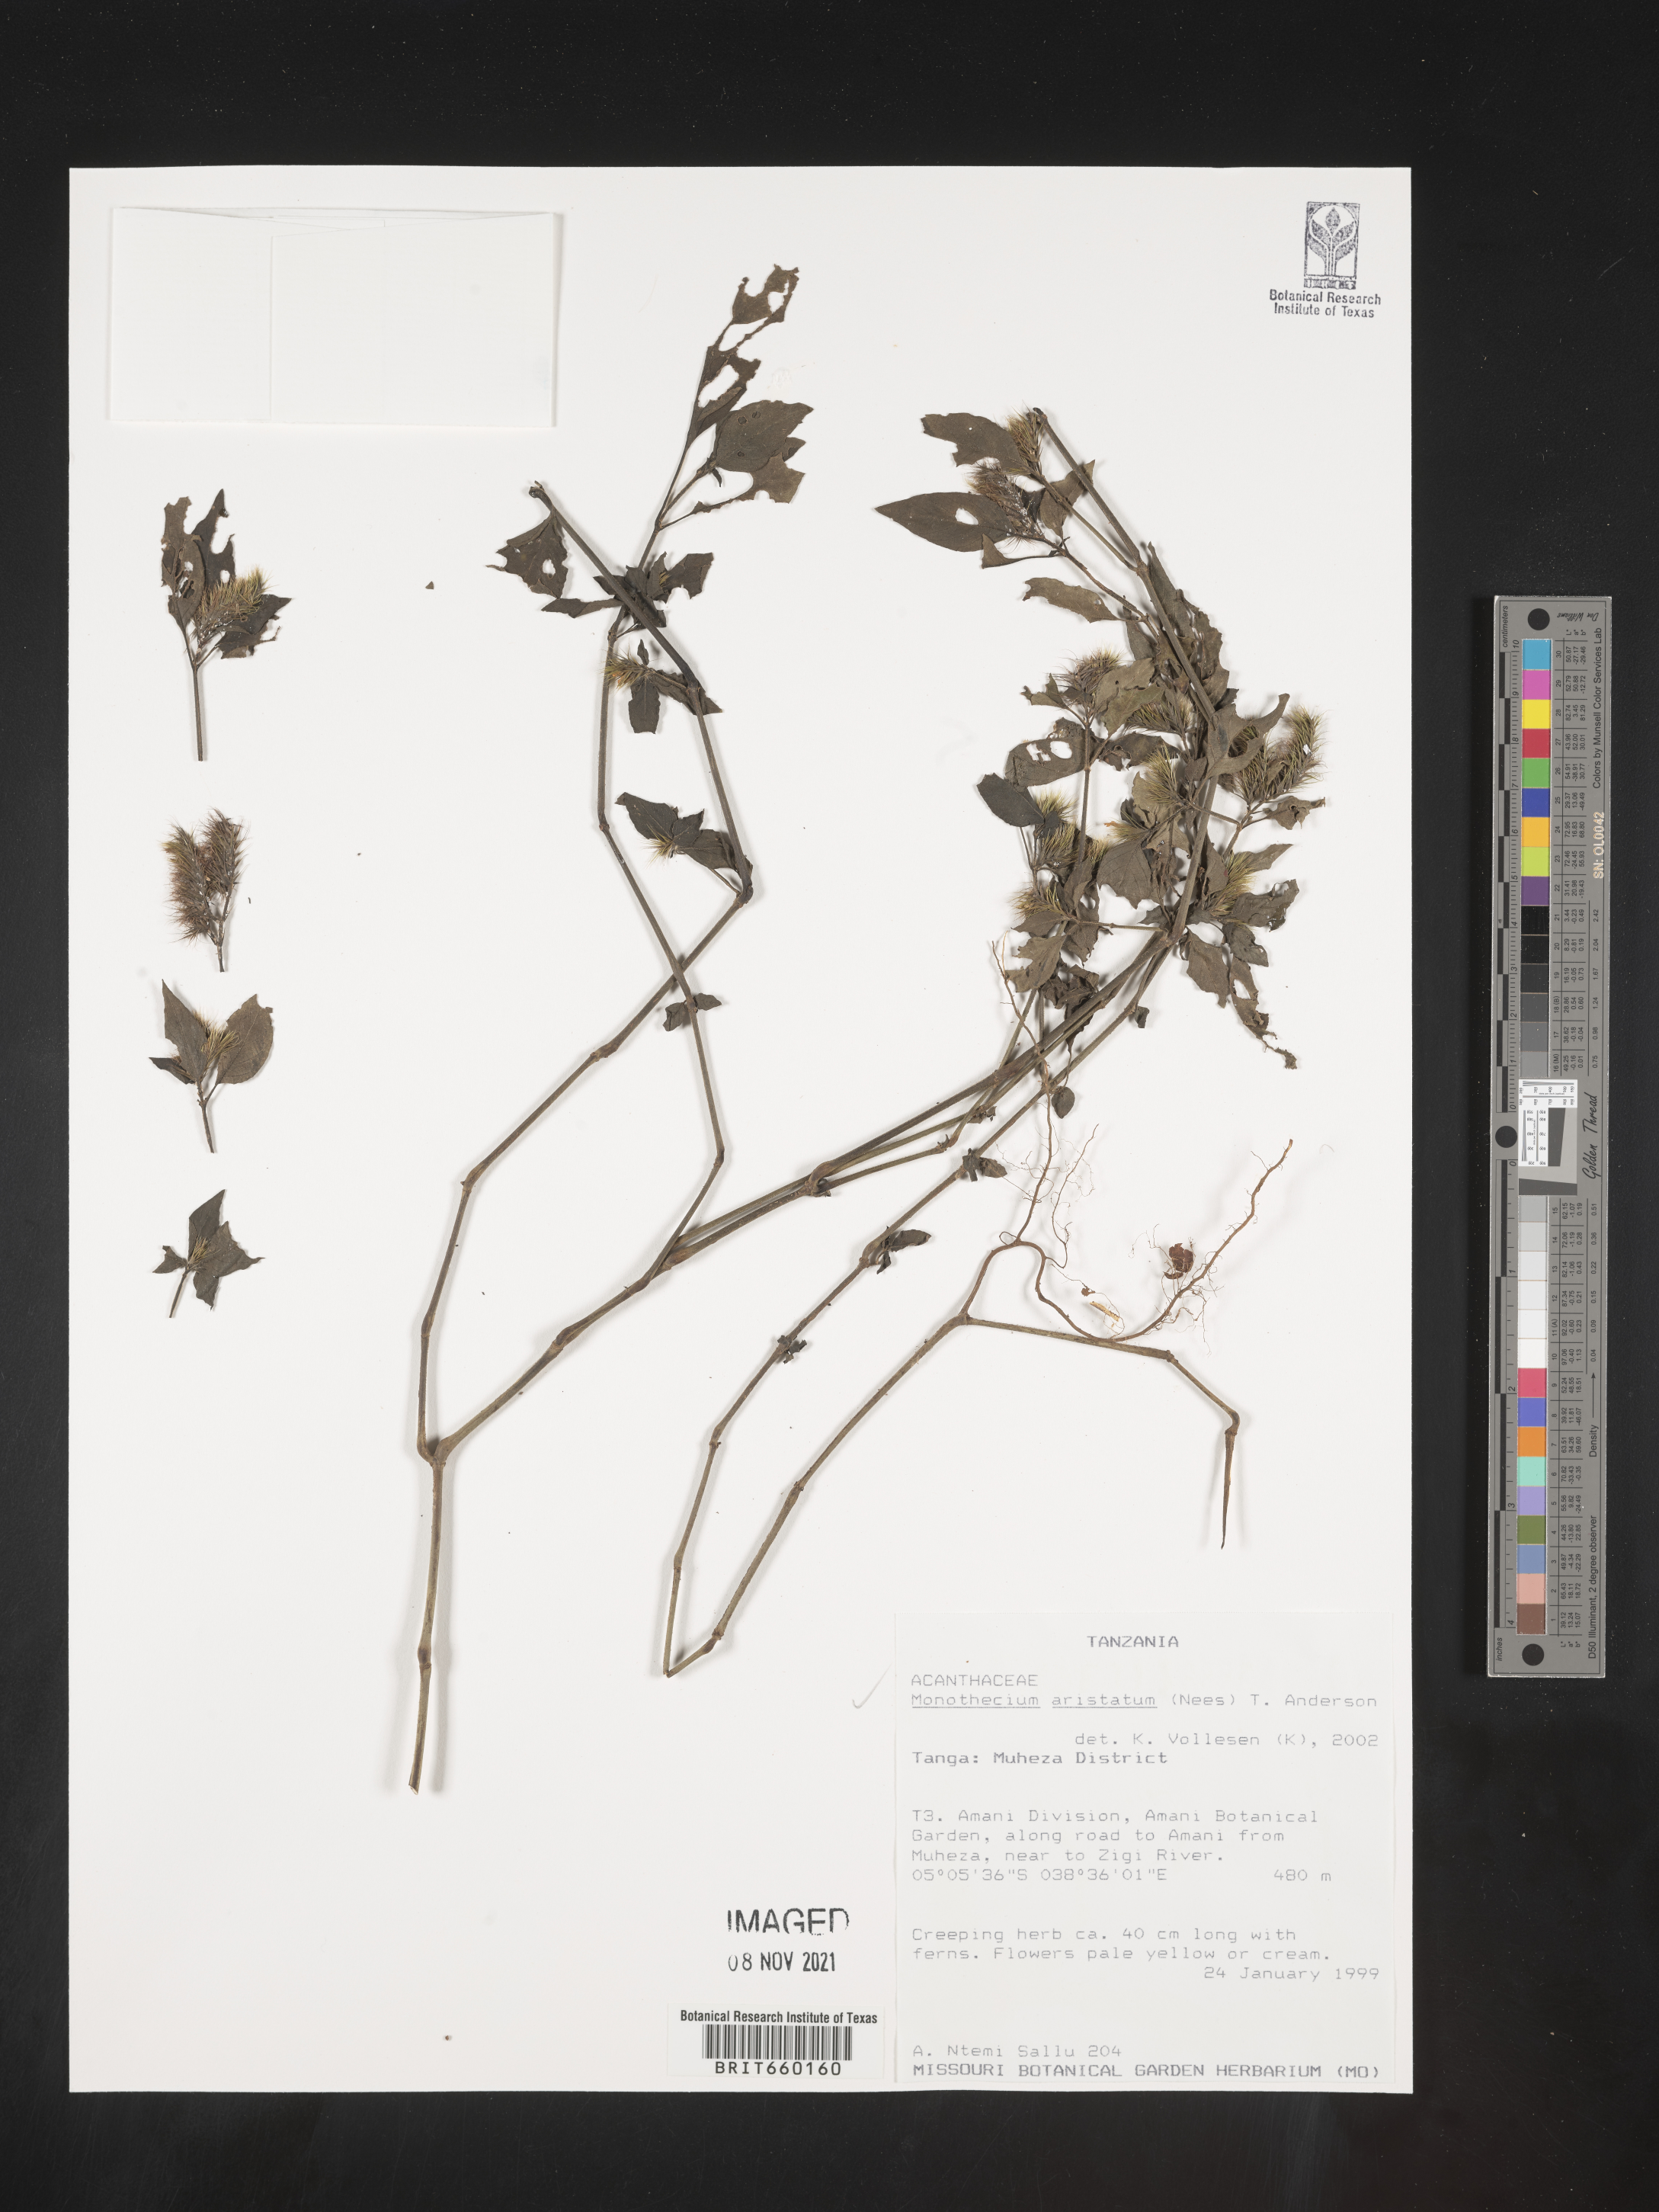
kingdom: Plantae
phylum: Tracheophyta
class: Magnoliopsida
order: Lamiales
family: Acanthaceae
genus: Monothecium
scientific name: Monothecium
